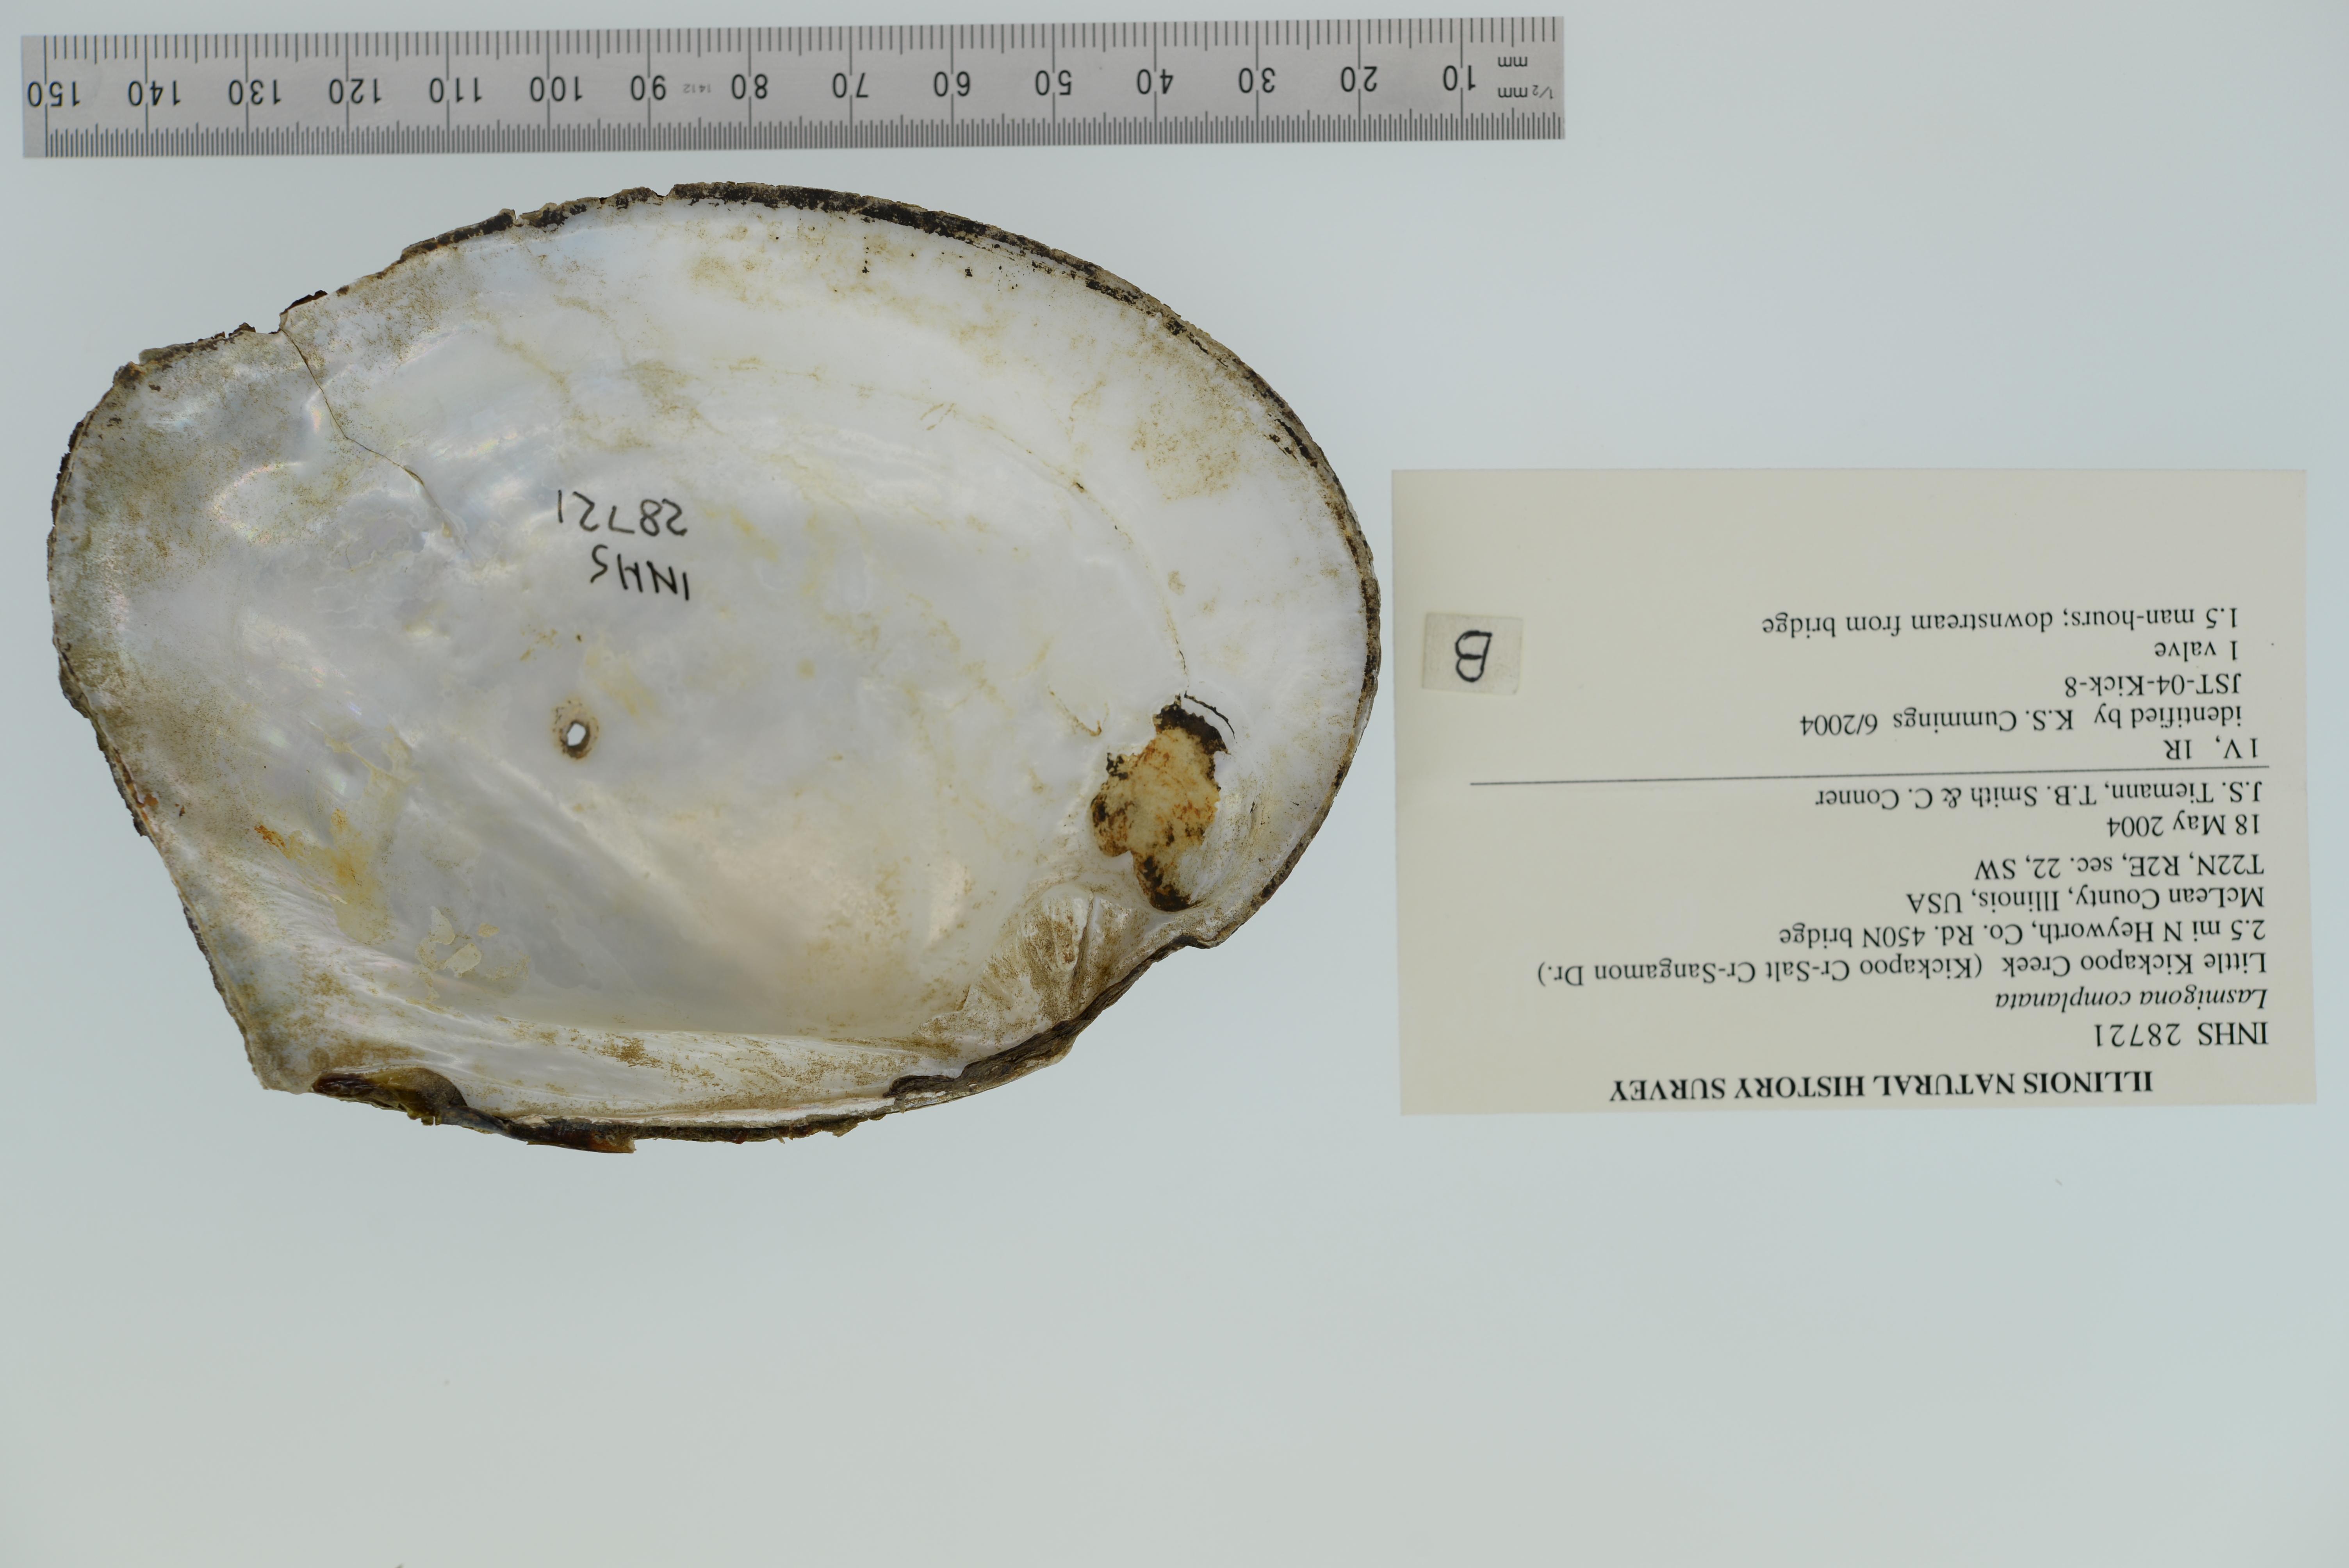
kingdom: Animalia
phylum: Mollusca
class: Bivalvia
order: Unionida
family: Unionidae
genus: Lasmigona
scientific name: Lasmigona complanata
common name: White heelsplitter
